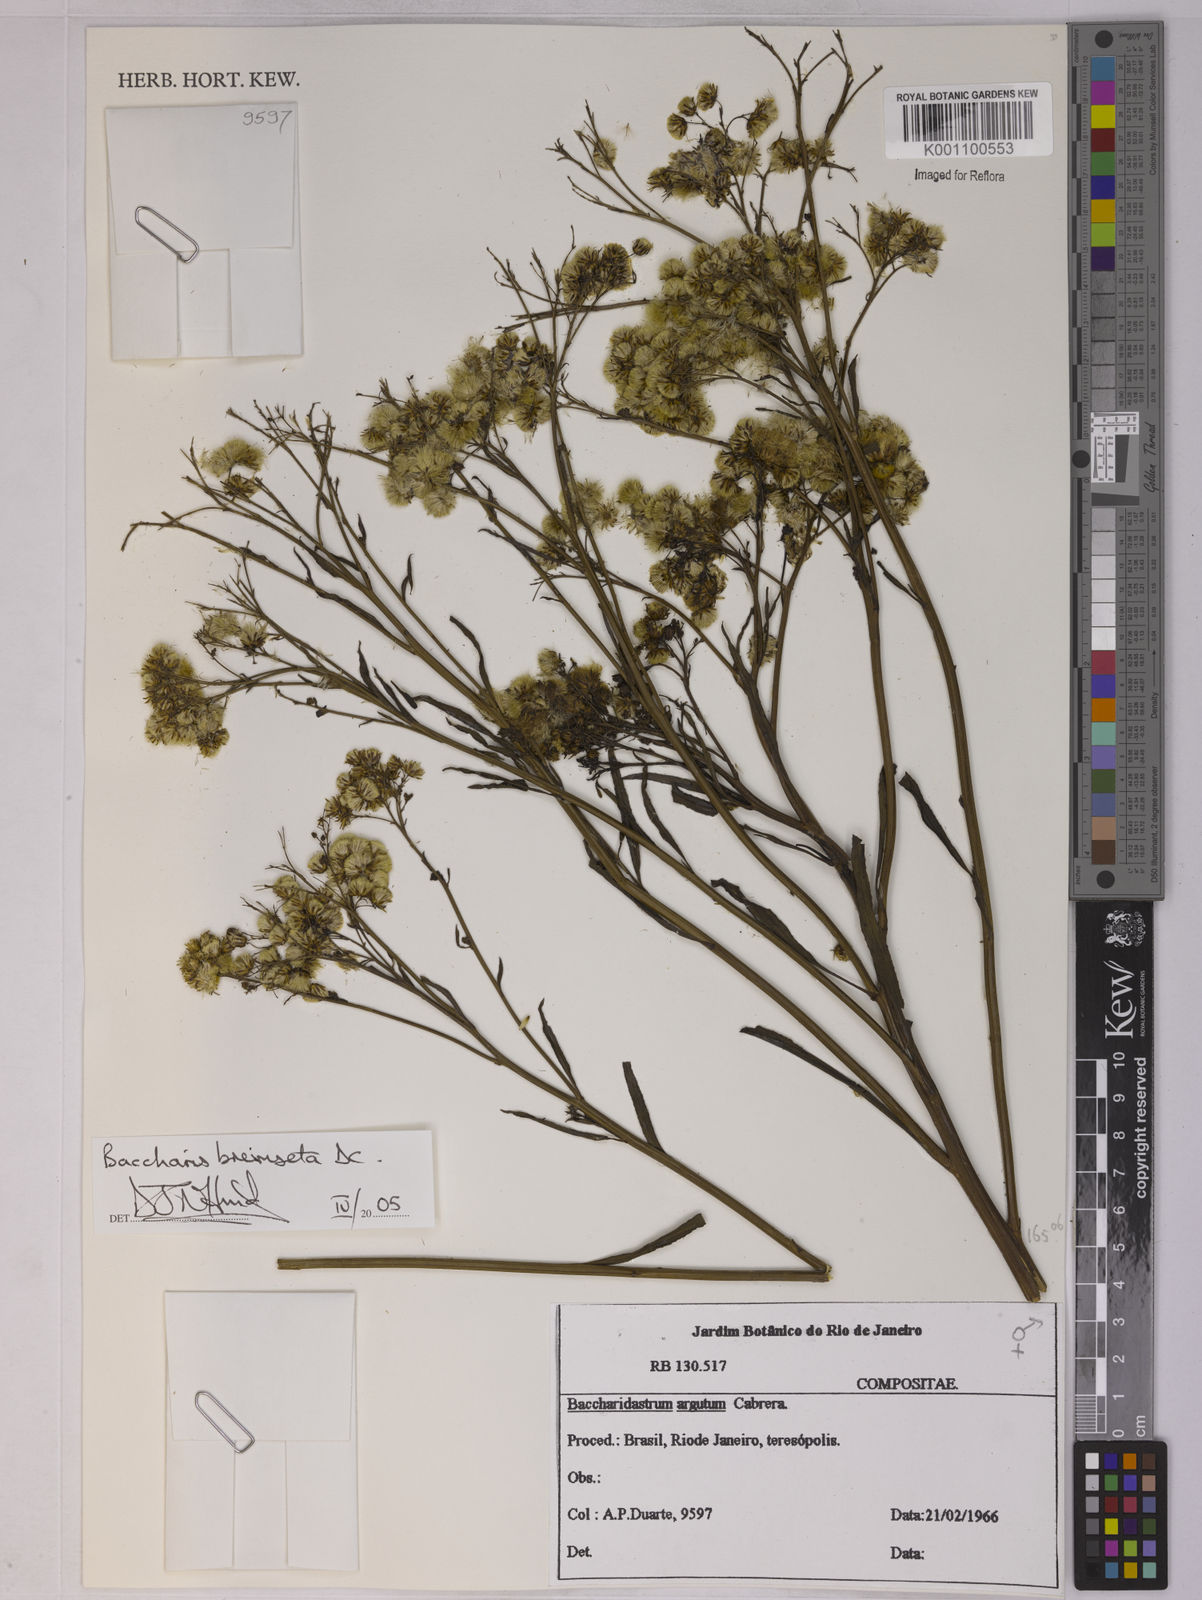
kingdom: Plantae
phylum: Tracheophyta
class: Magnoliopsida
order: Asterales
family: Asteraceae
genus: Baccharis
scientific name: Baccharis breviseta
